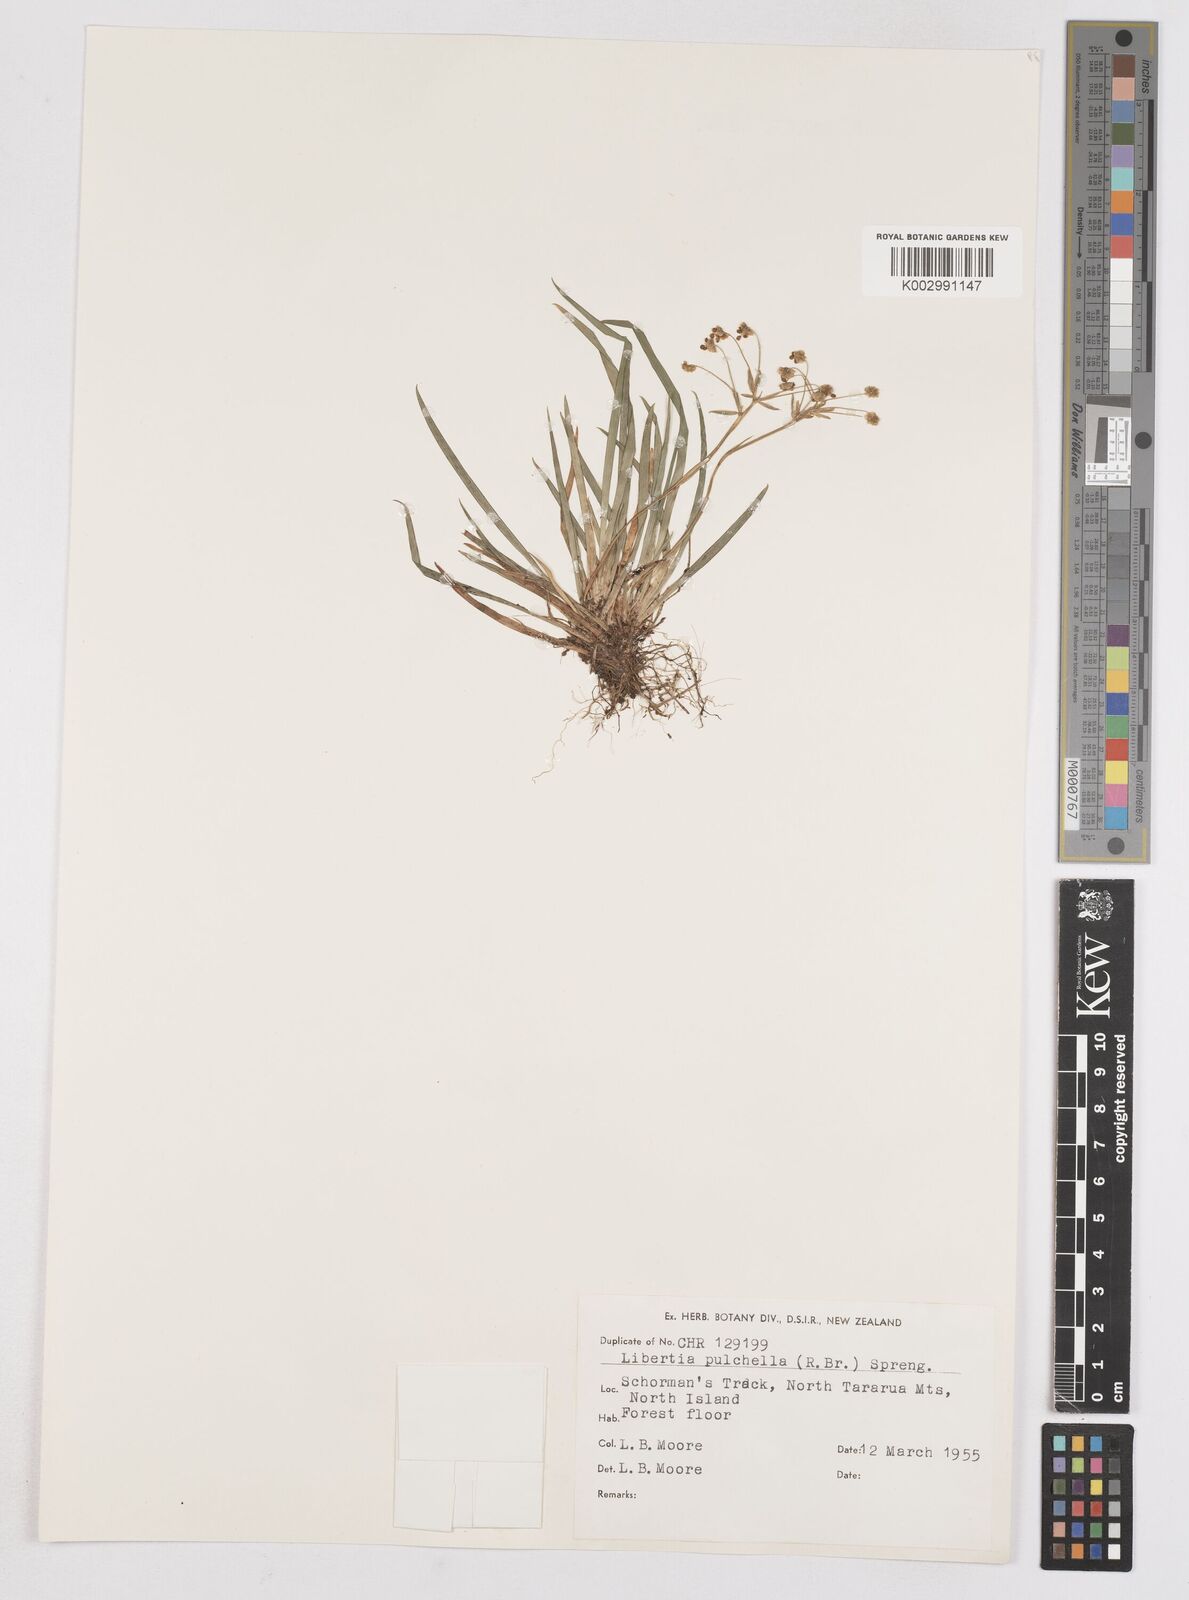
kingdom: Plantae
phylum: Tracheophyta
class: Liliopsida
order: Asparagales
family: Iridaceae
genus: Libertia
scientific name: Libertia pulchella
